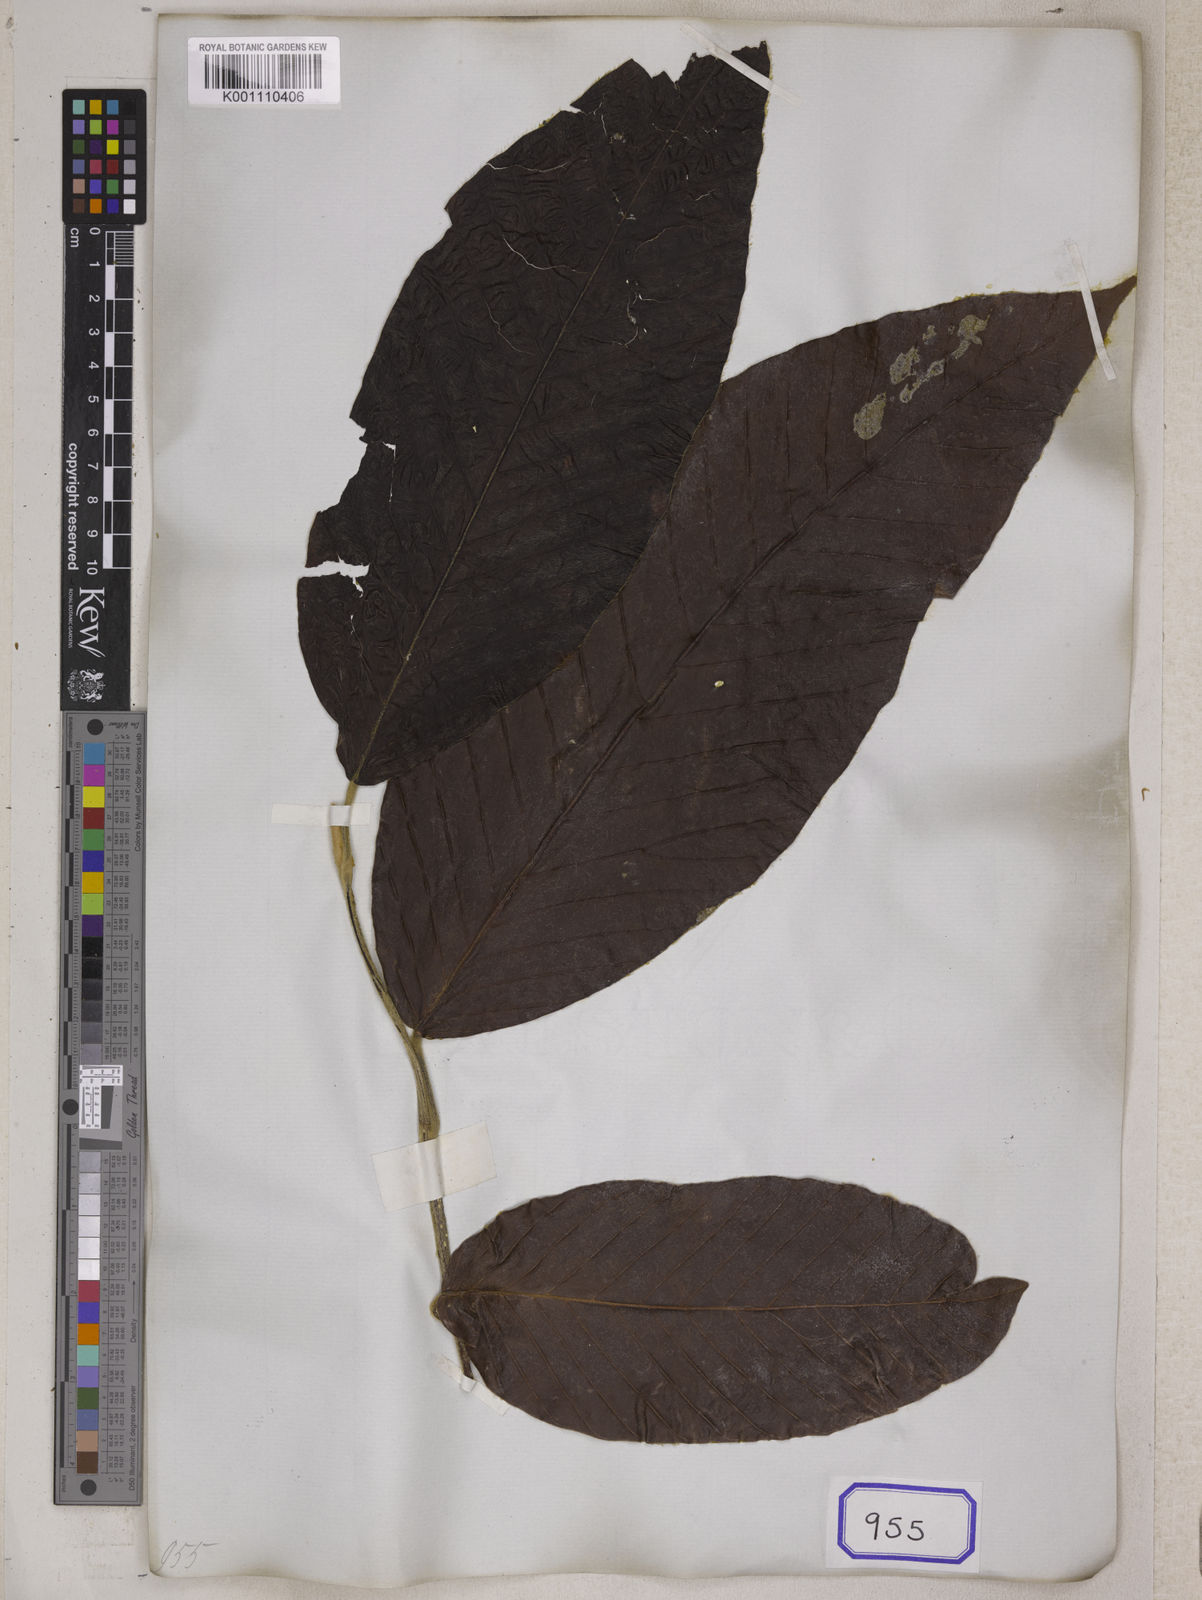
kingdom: Plantae
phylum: Tracheophyta
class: Magnoliopsida
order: Malvales
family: Dipterocarpaceae
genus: Dipterocarpus
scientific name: Dipterocarpus gracilis
